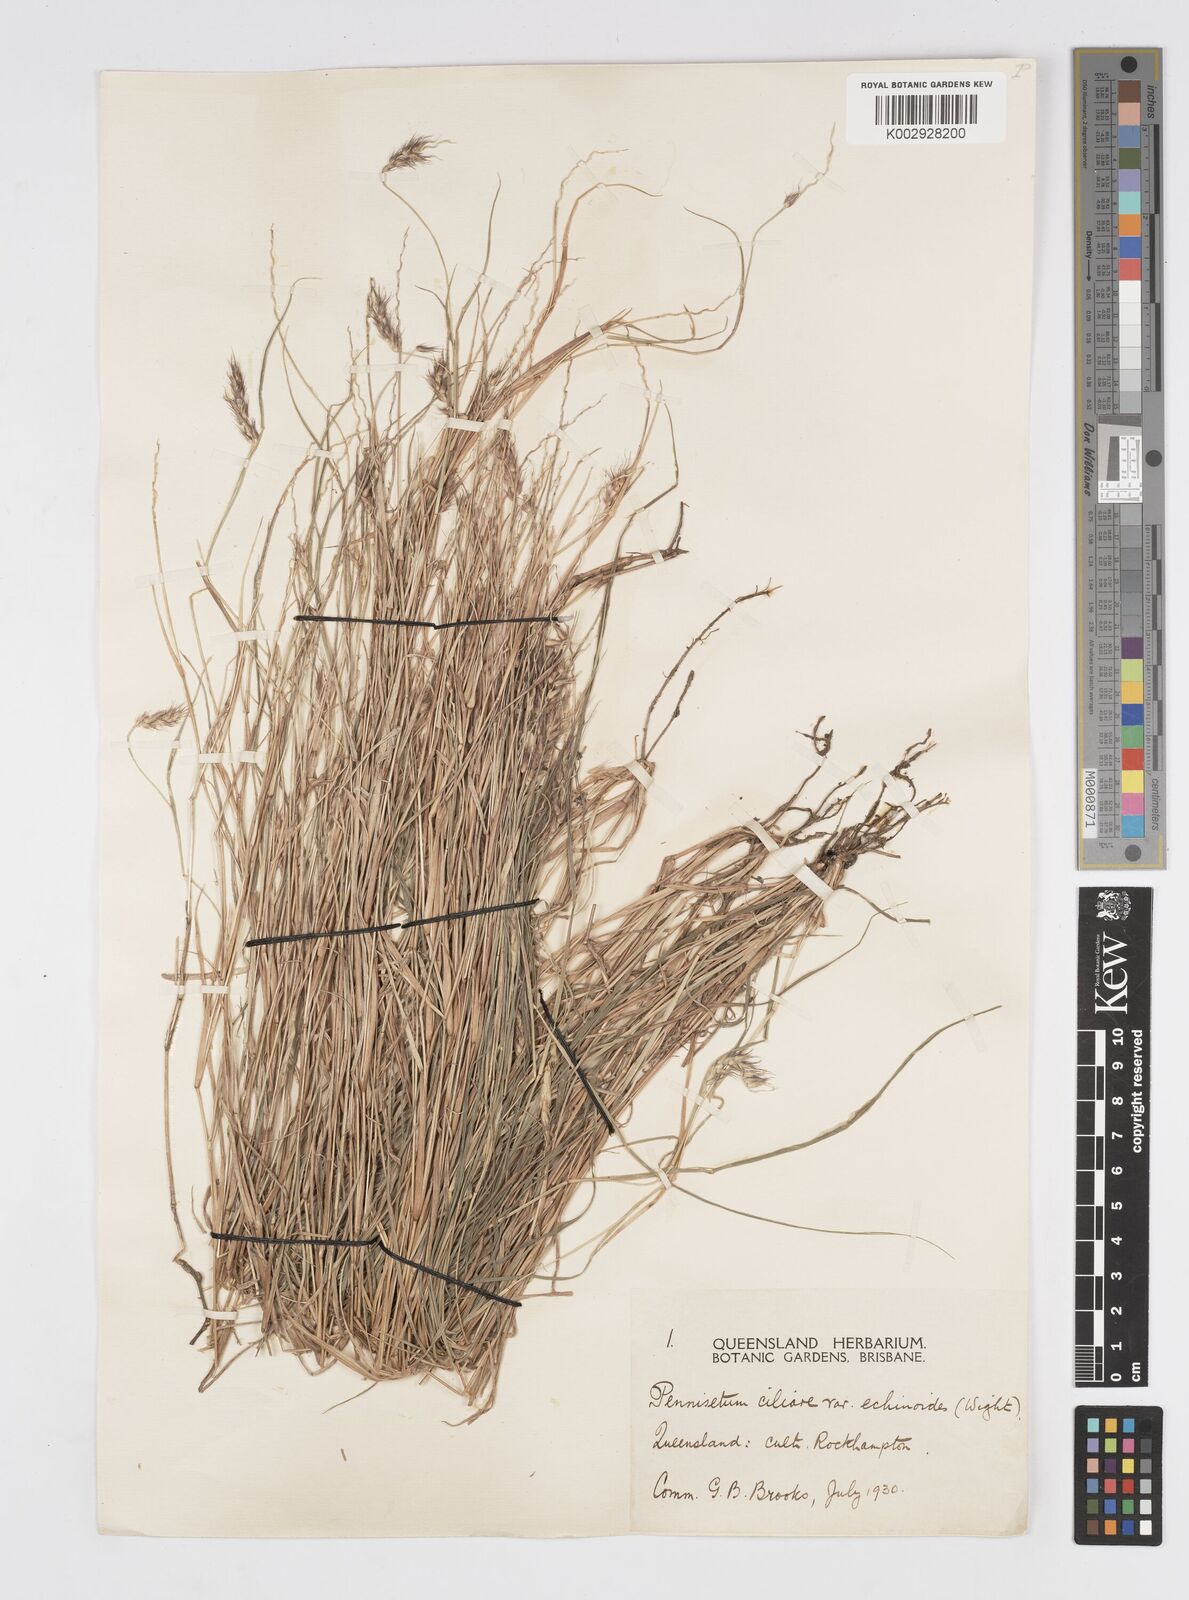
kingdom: Plantae
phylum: Tracheophyta
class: Liliopsida
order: Poales
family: Poaceae
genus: Cenchrus
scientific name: Cenchrus pennisetiformis
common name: Cloncurry
